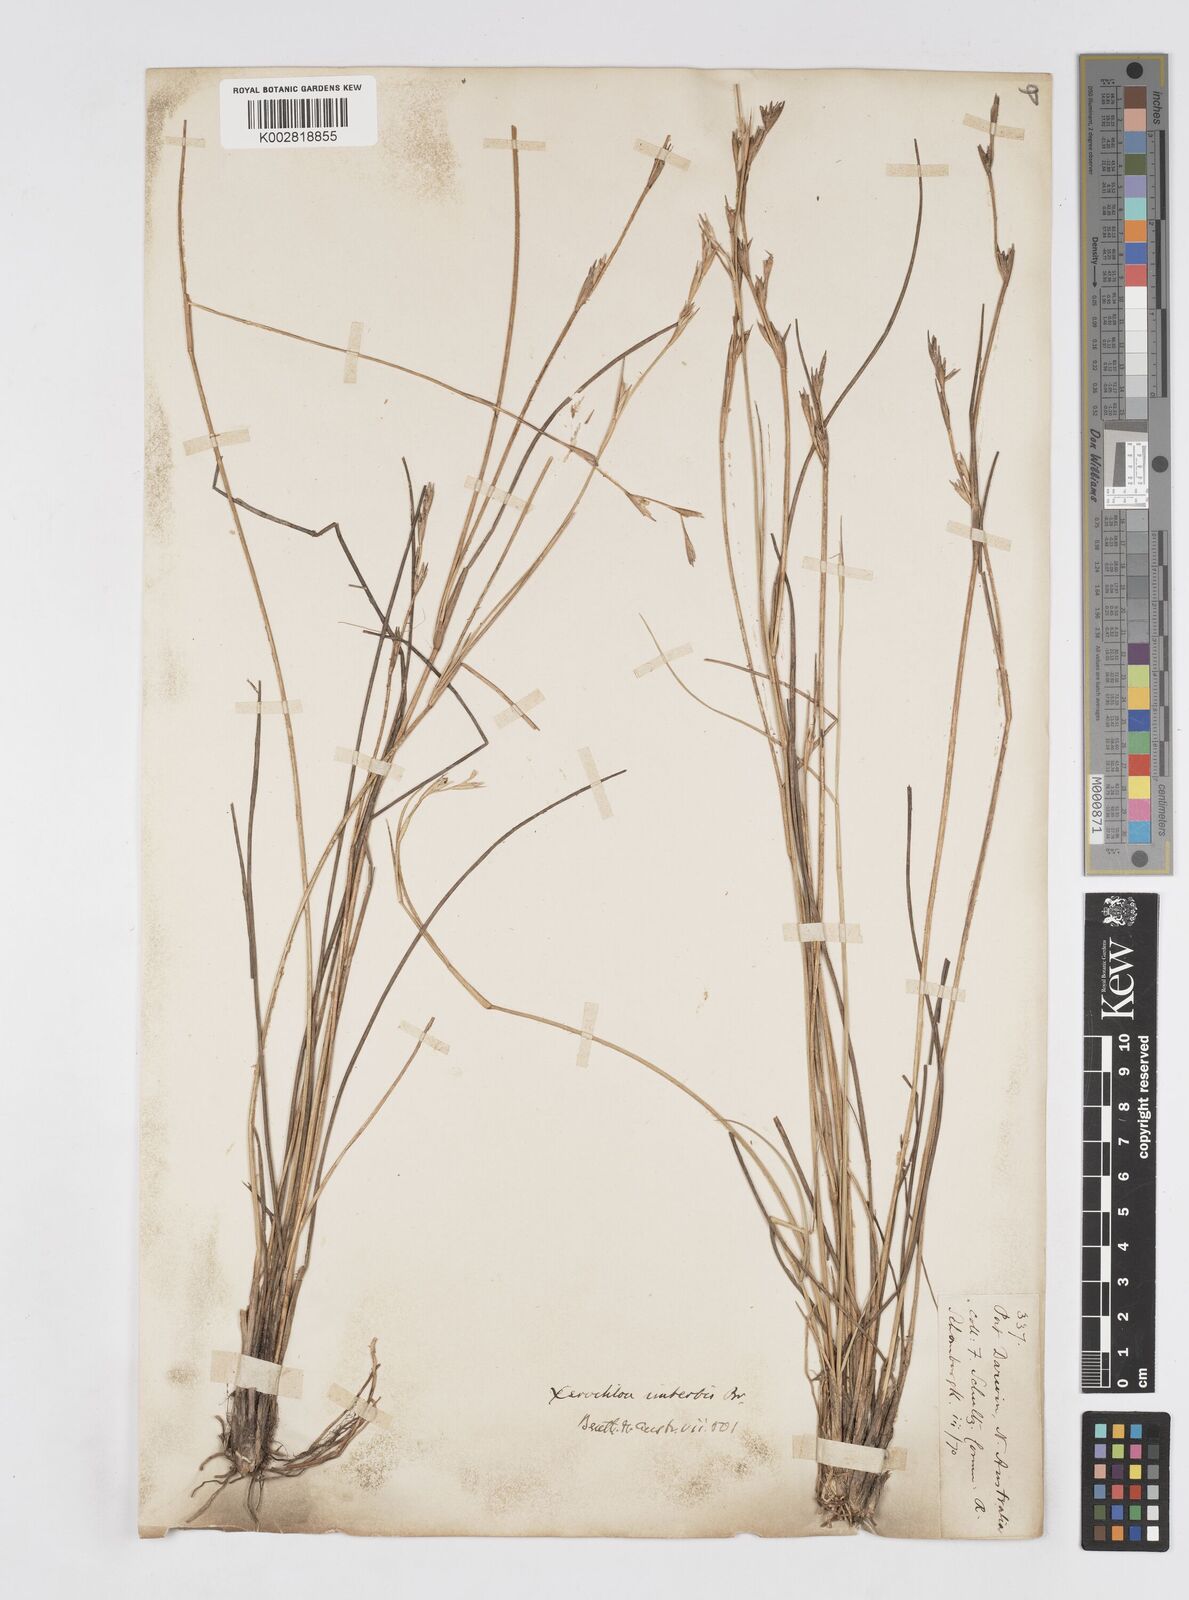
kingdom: Plantae
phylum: Tracheophyta
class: Liliopsida
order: Poales
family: Poaceae
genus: Xerochloa
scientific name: Xerochloa imberbis
